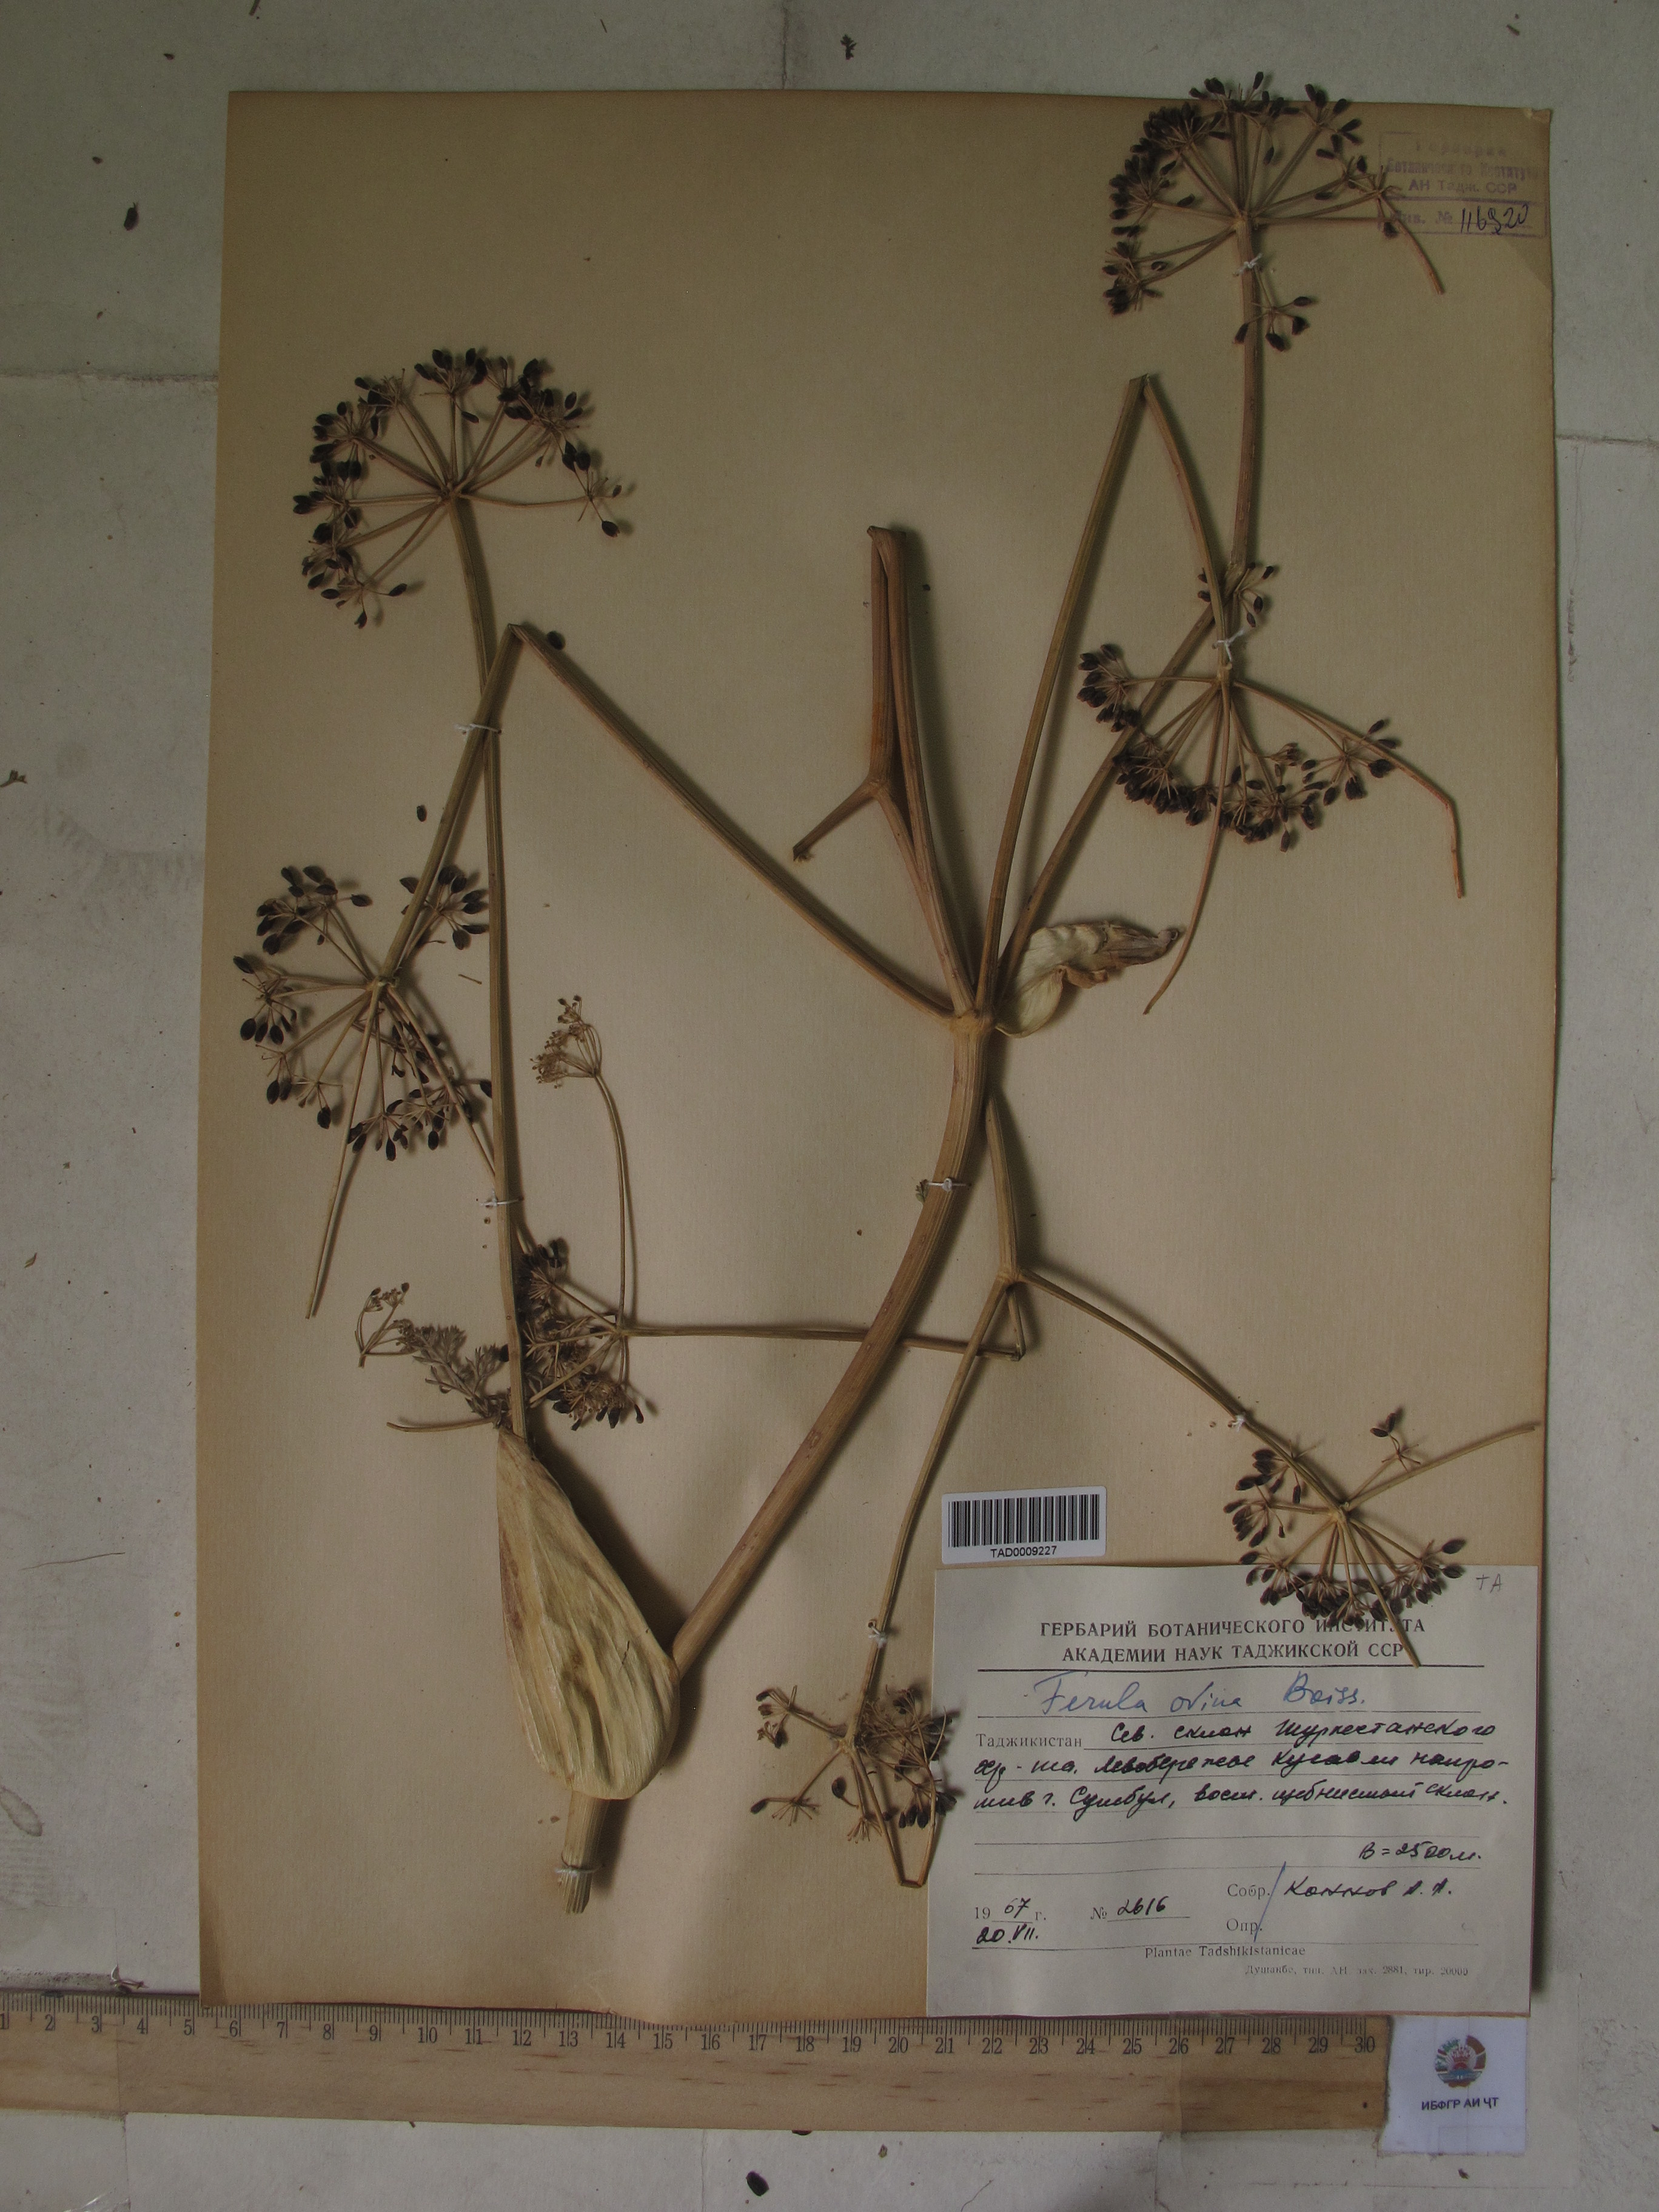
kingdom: Plantae
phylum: Tracheophyta
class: Magnoliopsida
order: Apiales
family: Apiaceae
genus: Ferula
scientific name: Ferula ovina
